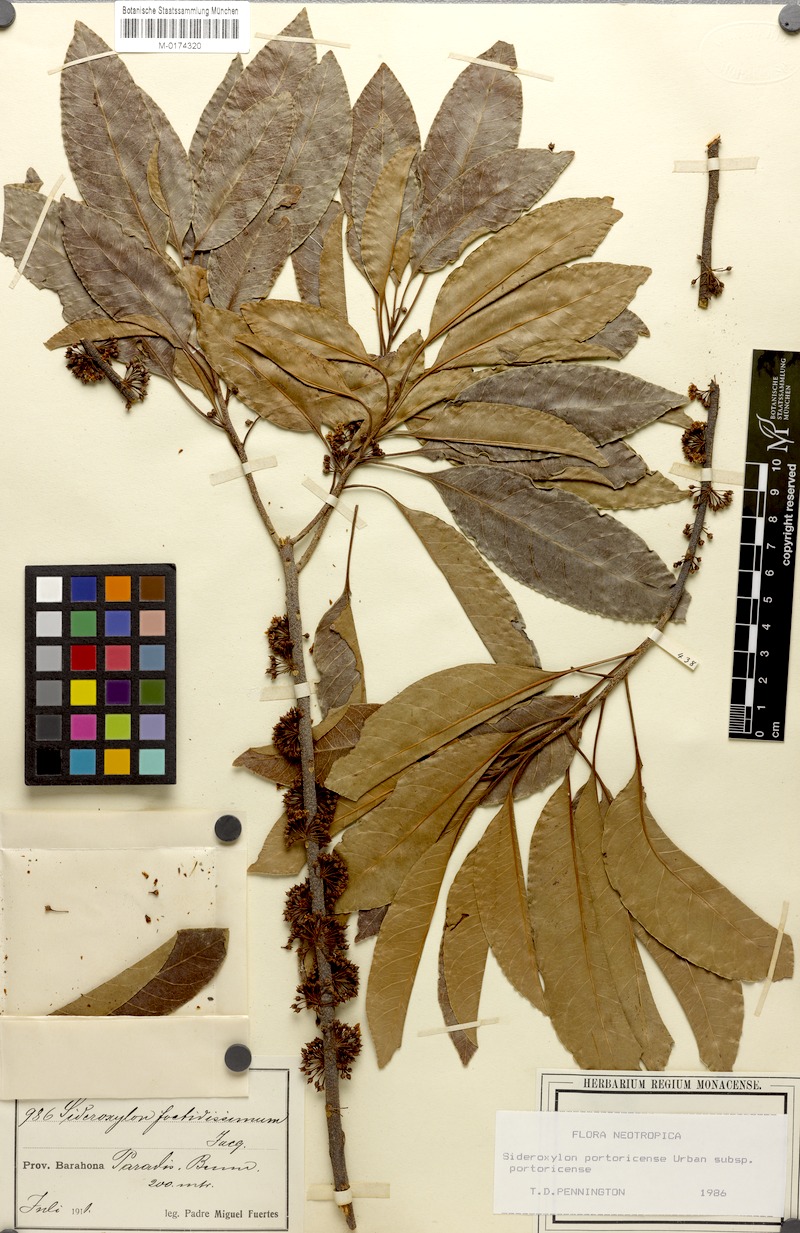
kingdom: Plantae
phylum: Tracheophyta
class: Magnoliopsida
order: Ericales
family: Sapotaceae
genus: Sideroxylon
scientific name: Sideroxylon portoricense
